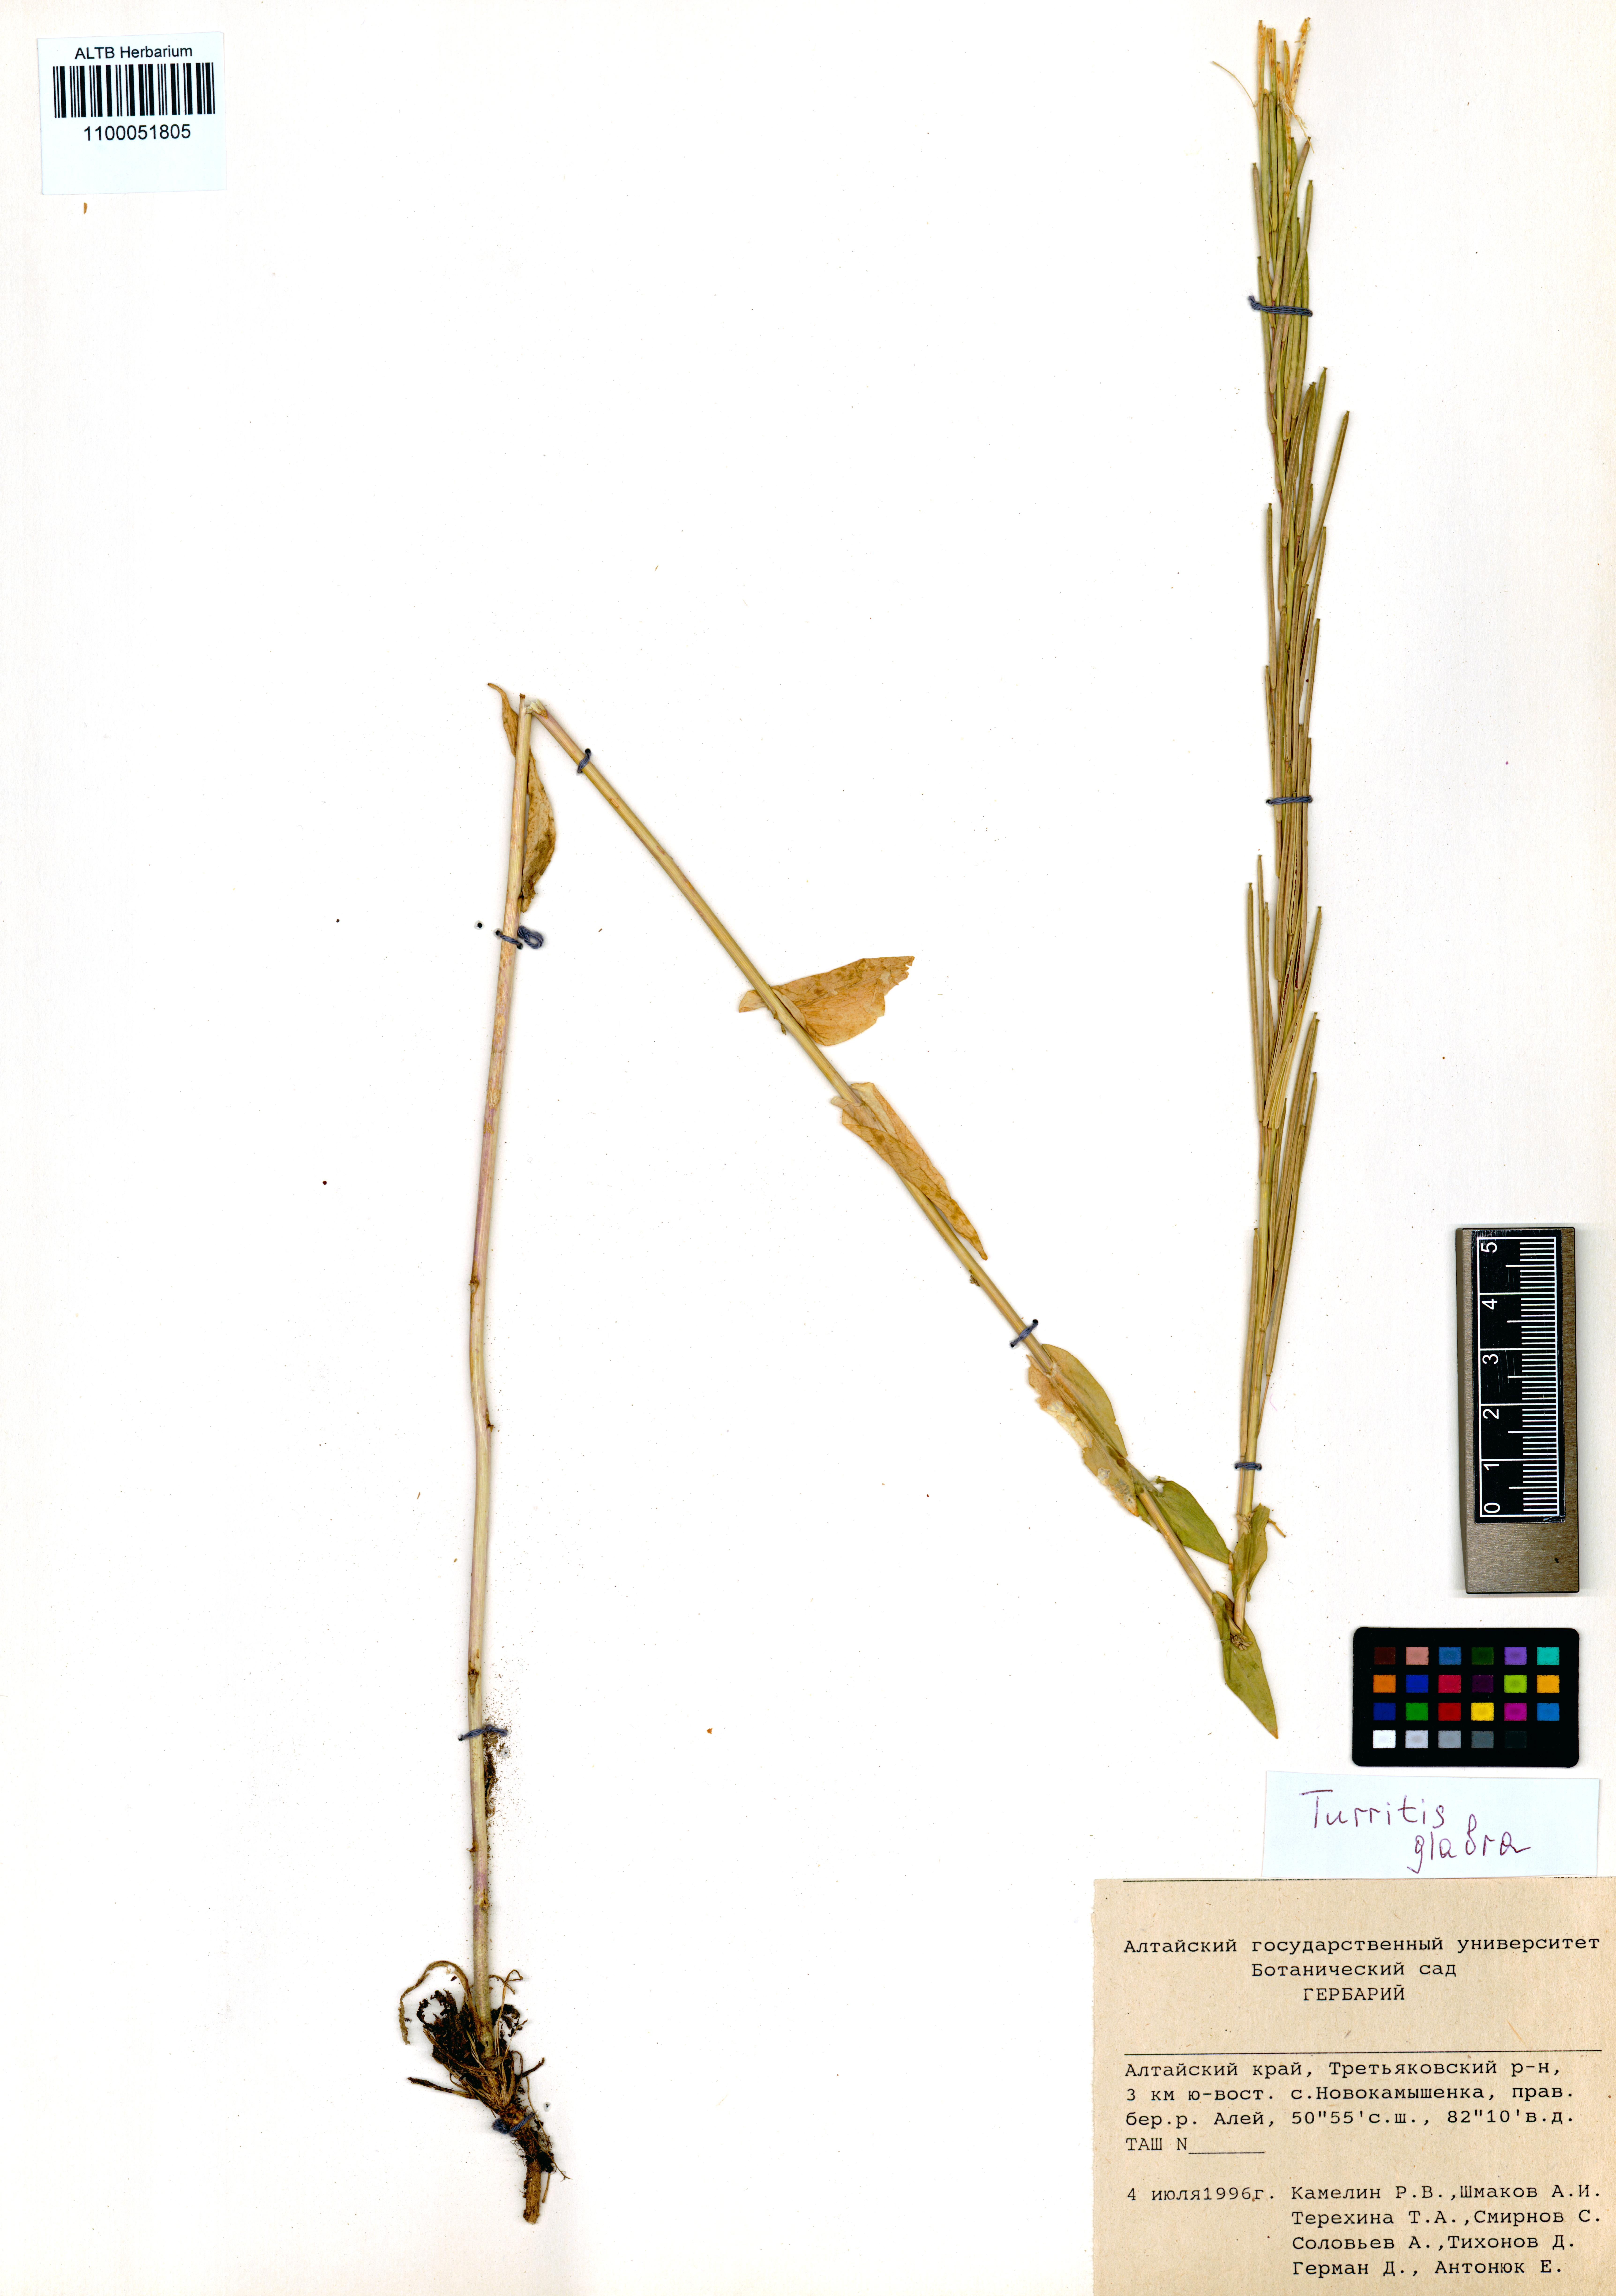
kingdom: Plantae
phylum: Tracheophyta
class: Magnoliopsida
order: Brassicales
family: Brassicaceae
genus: Turritis
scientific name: Turritis glabra
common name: Tower rockcress
